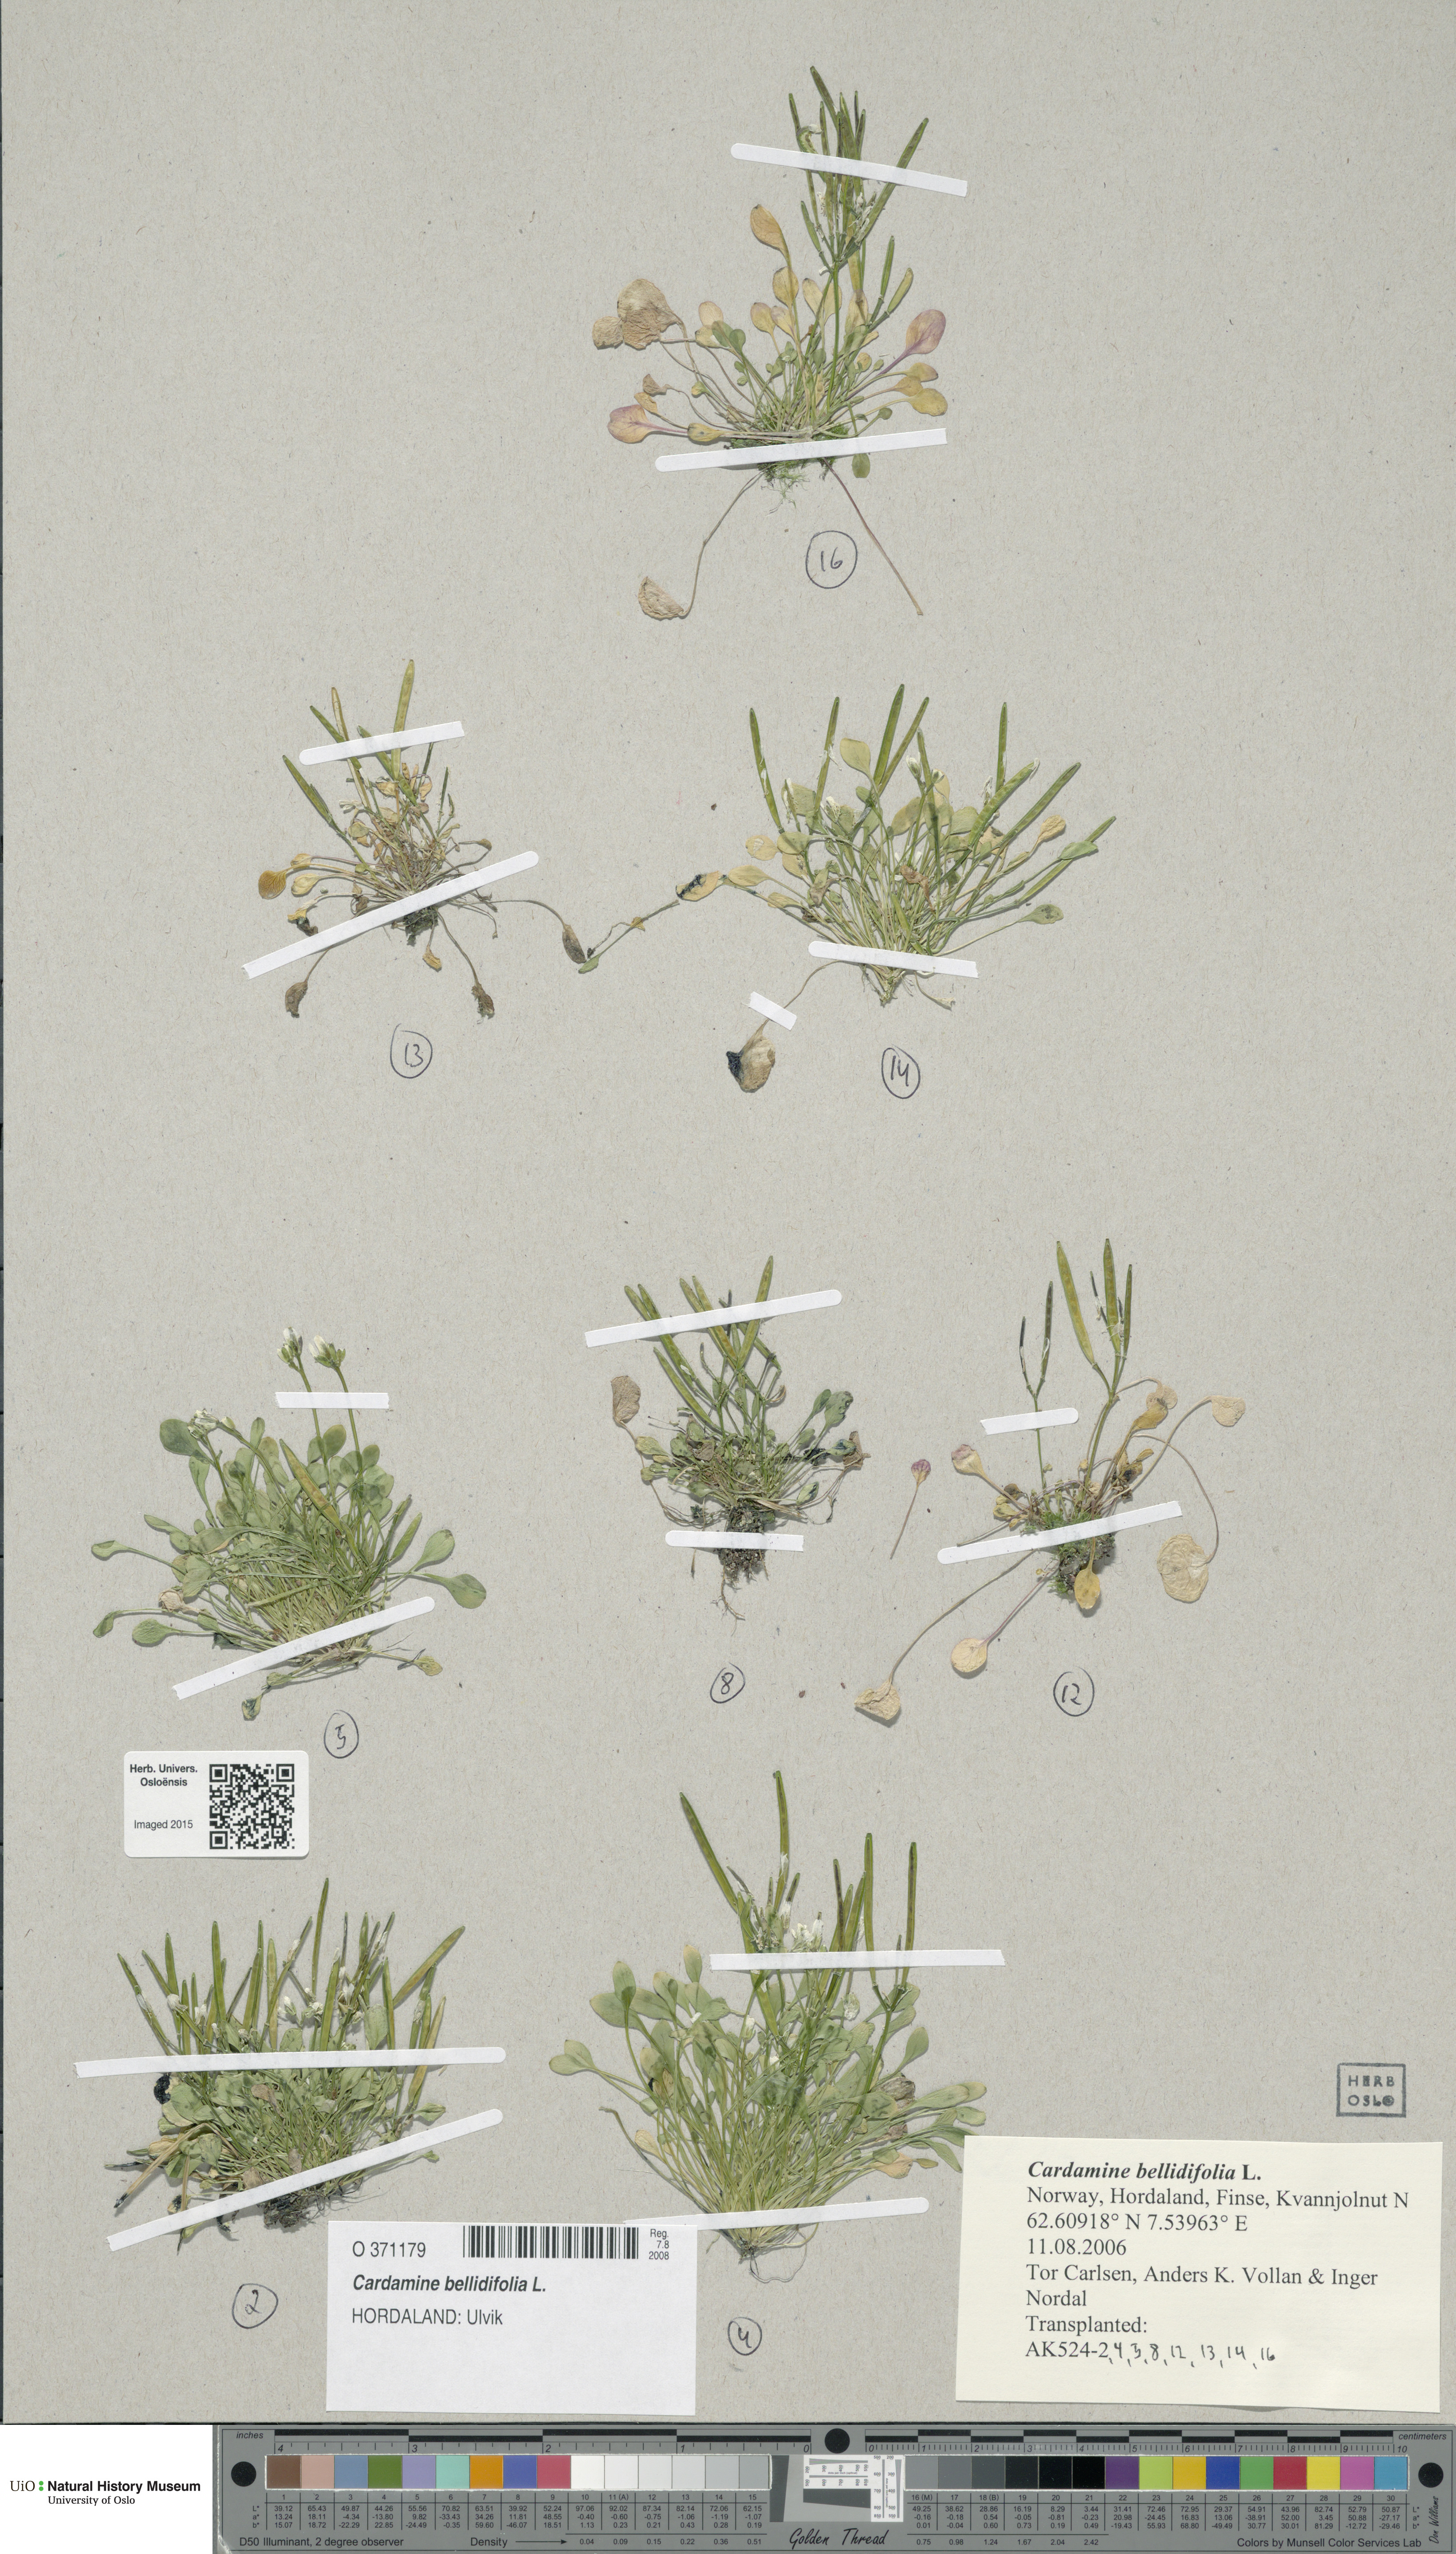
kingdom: Plantae
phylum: Tracheophyta
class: Magnoliopsida
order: Brassicales
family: Brassicaceae
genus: Cardamine
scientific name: Cardamine bellidifolia
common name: Alpine bittercress
